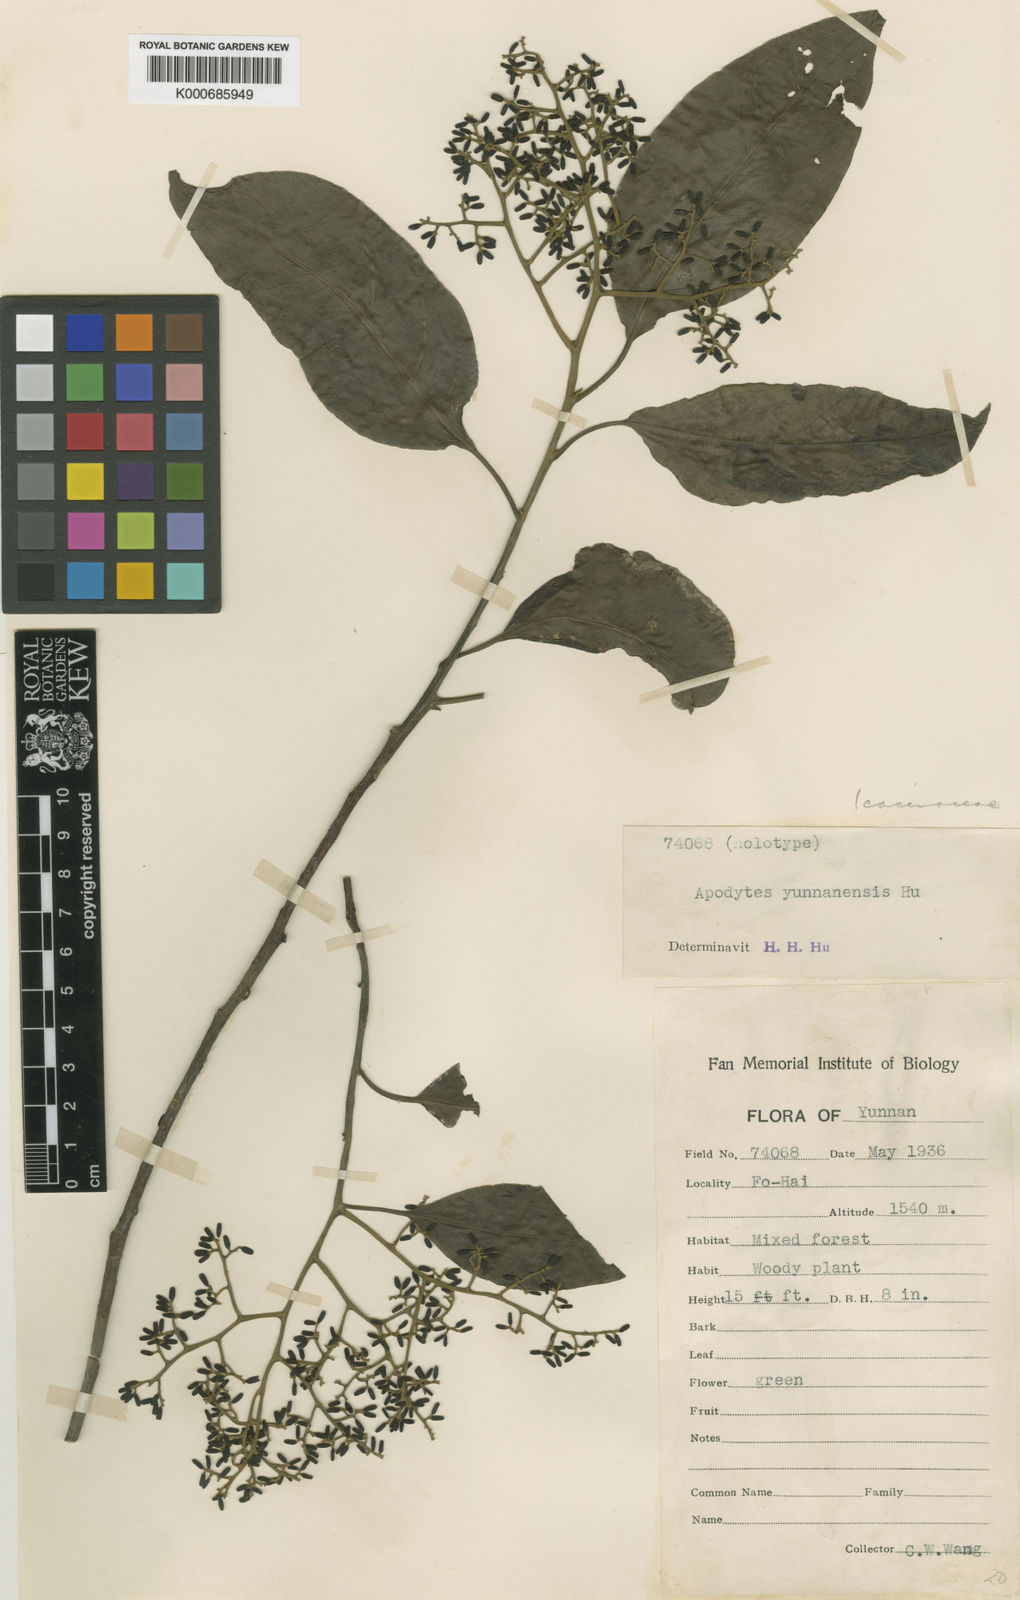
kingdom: Plantae
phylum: Tracheophyta
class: Magnoliopsida
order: Metteniusales
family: Metteniusaceae
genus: Apodytes
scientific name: Apodytes dimidiata
